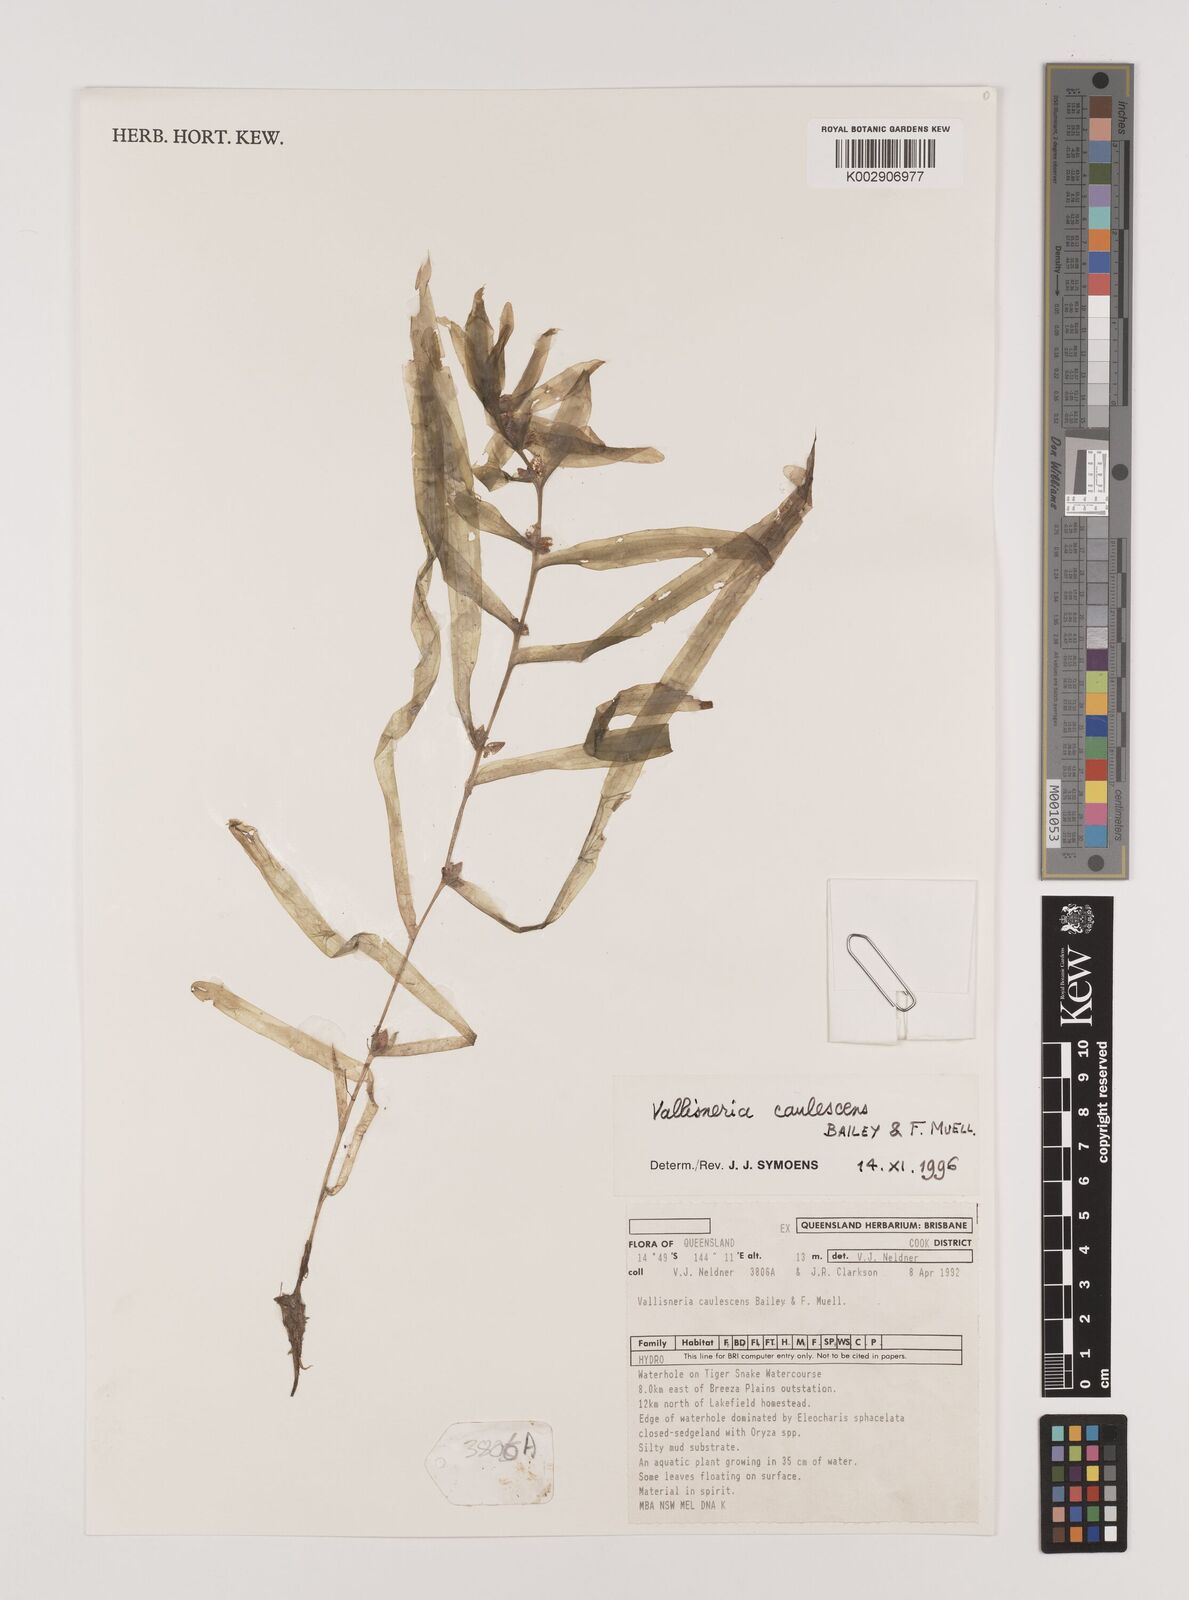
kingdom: Plantae
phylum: Tracheophyta
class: Liliopsida
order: Alismatales
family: Hydrocharitaceae
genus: Vallisneria
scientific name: Vallisneria caulescens
